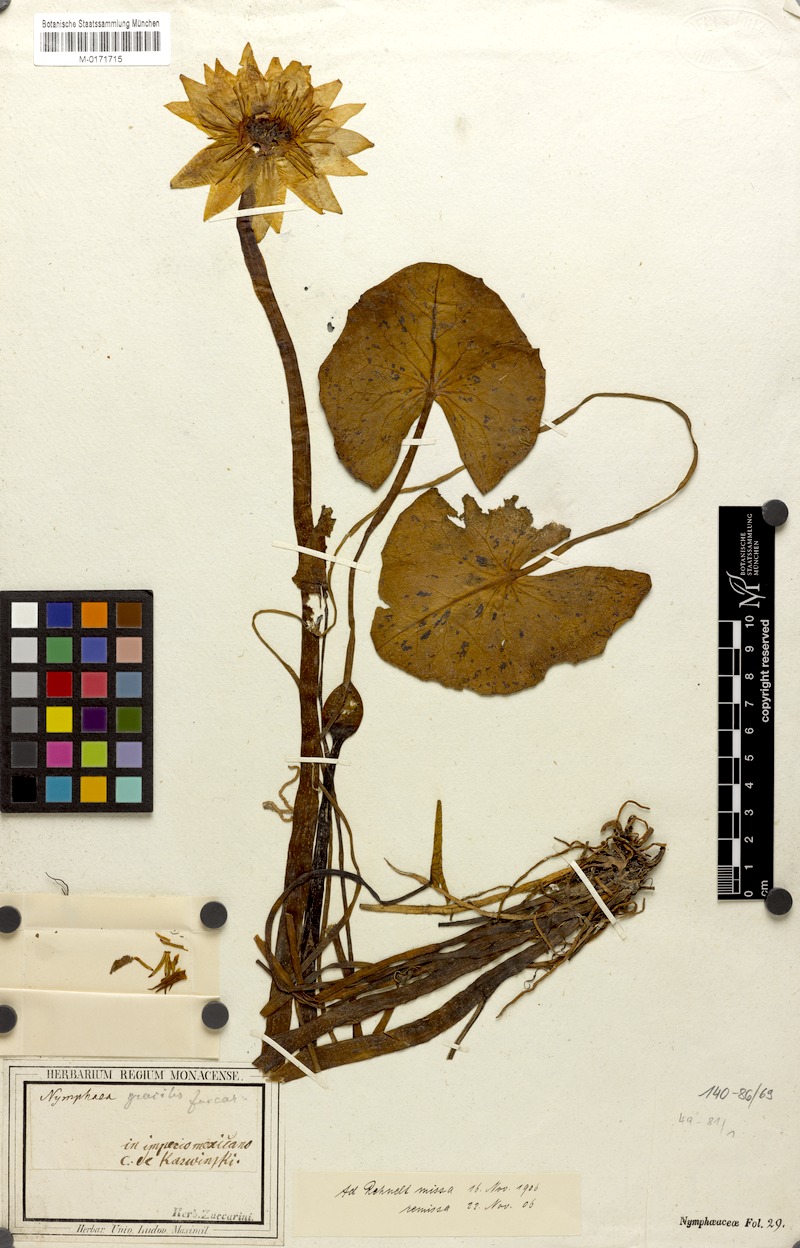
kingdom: Plantae
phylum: Tracheophyta
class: Magnoliopsida
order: Nymphaeales
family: Nymphaeaceae
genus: Nymphaea
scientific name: Nymphaea gracilis
